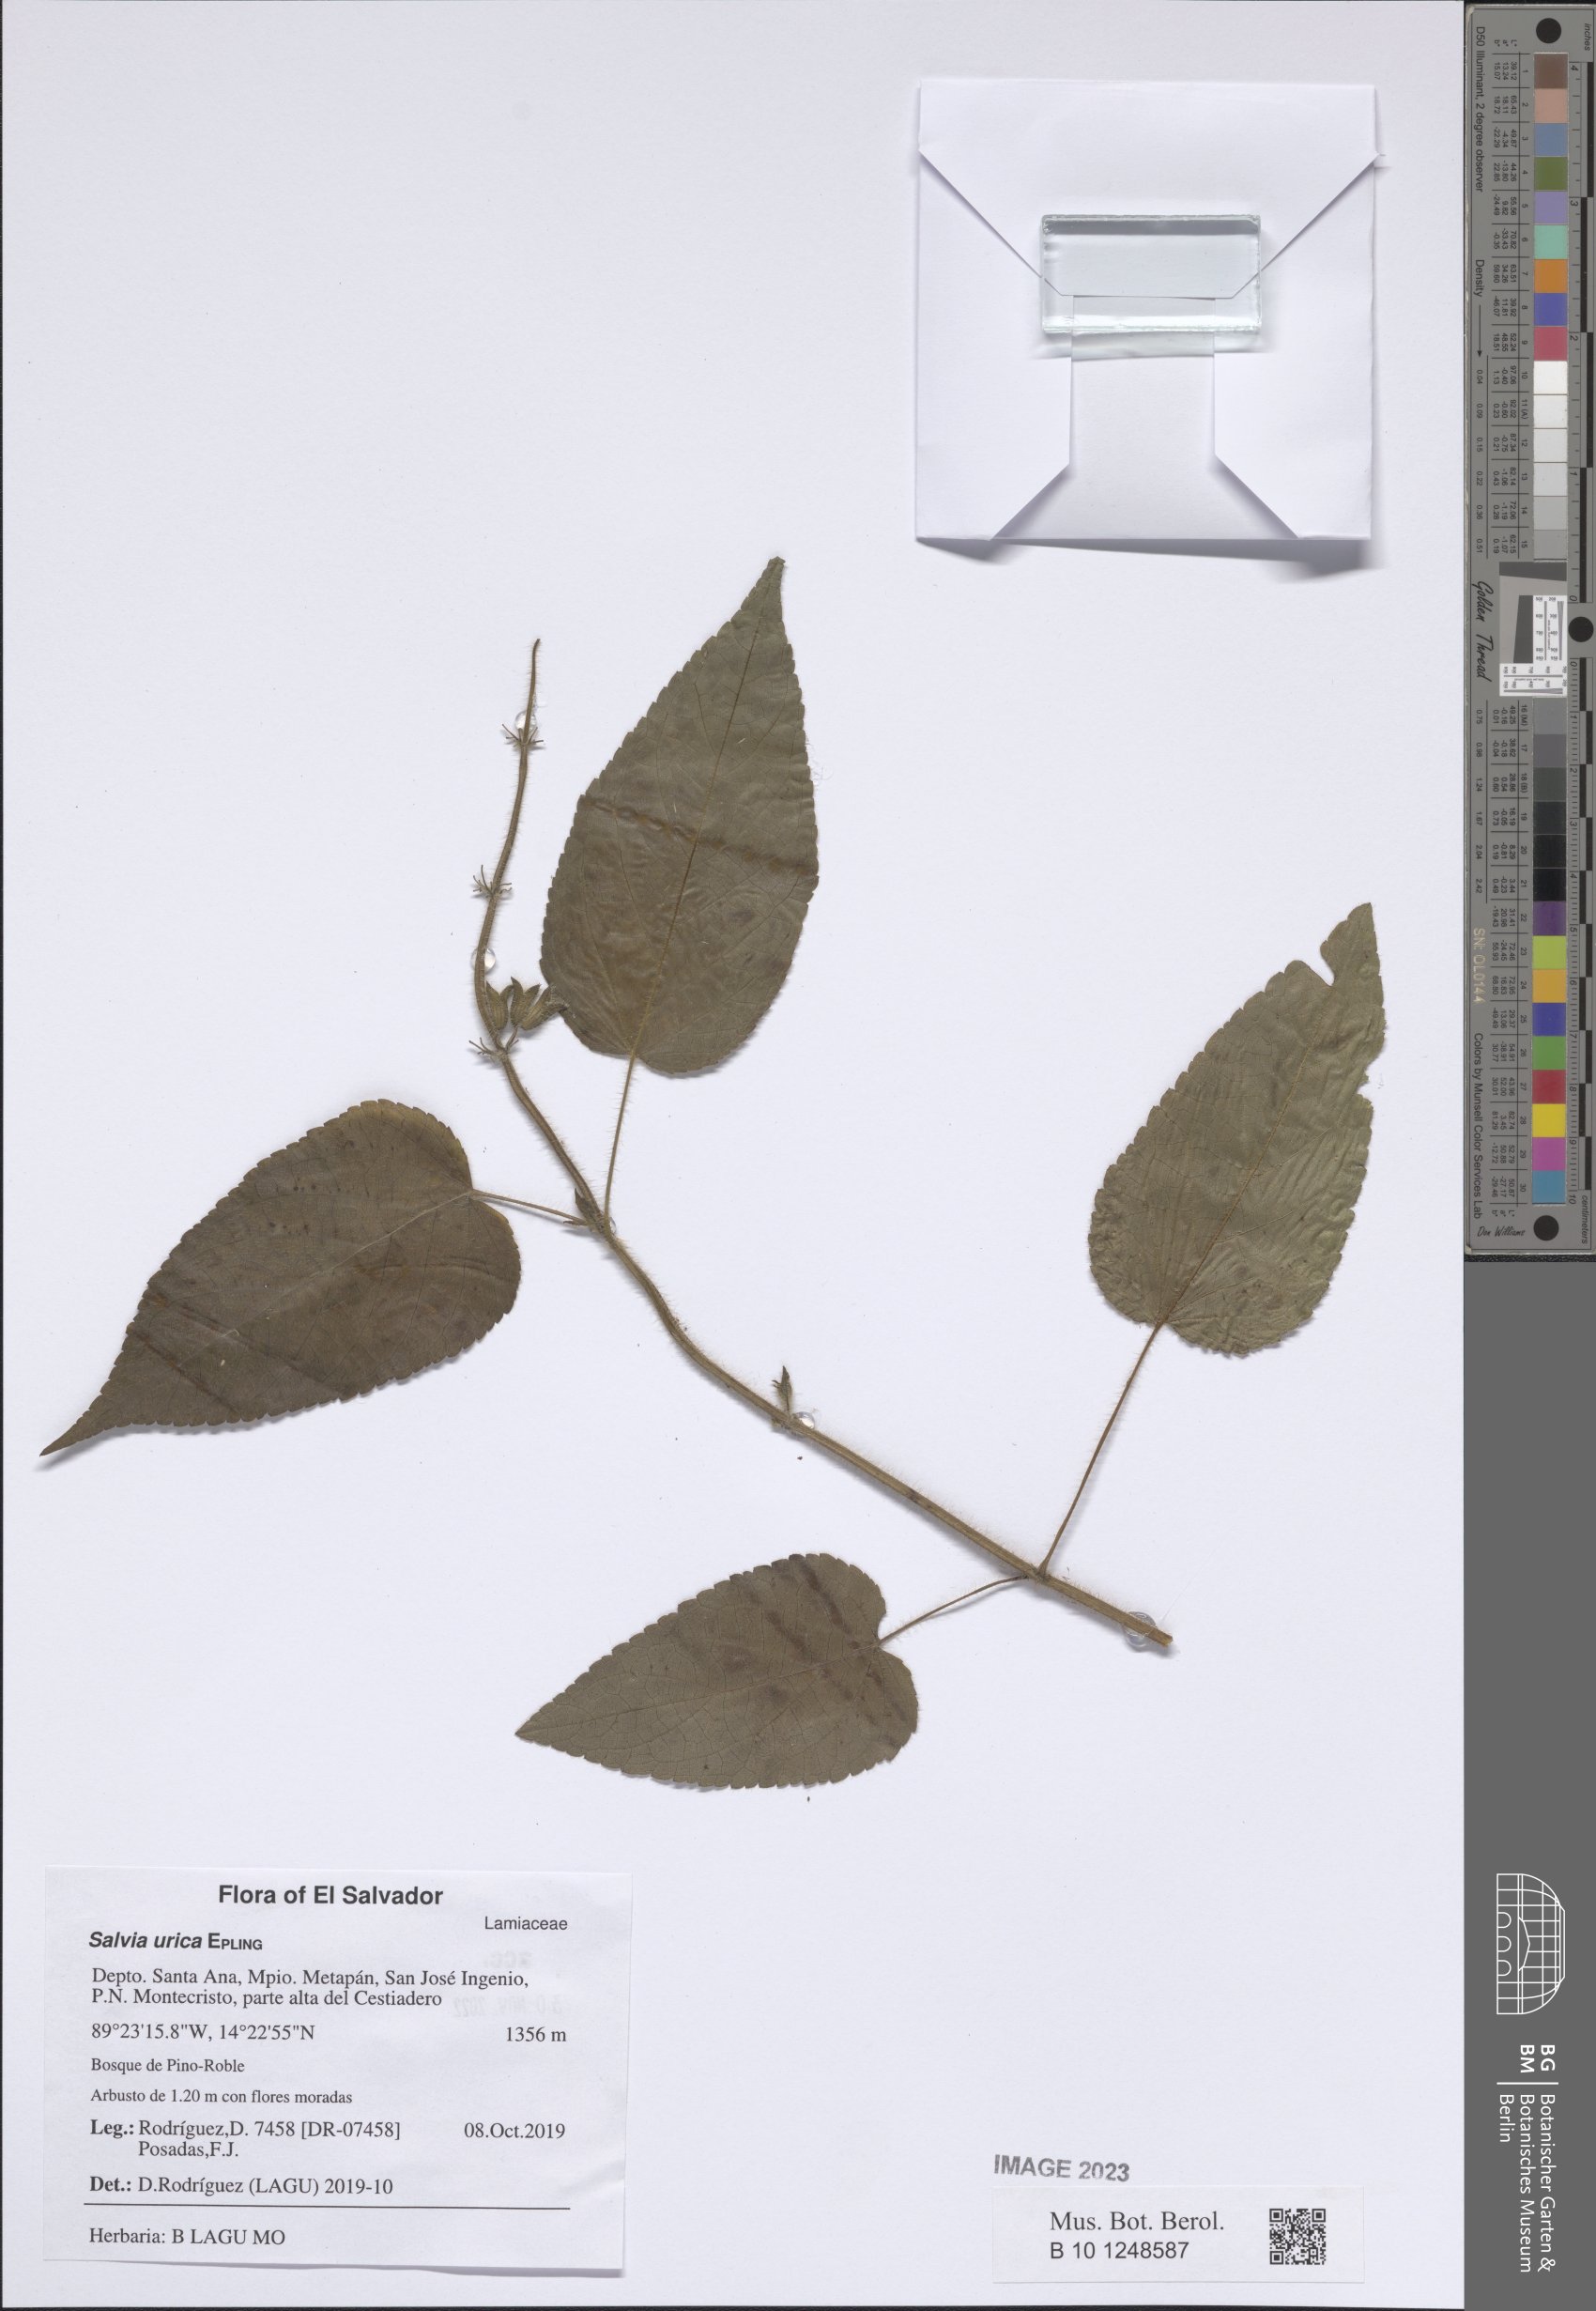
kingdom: Plantae
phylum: Tracheophyta
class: Magnoliopsida
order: Lamiales
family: Lamiaceae
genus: Salvia
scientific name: Salvia urica
